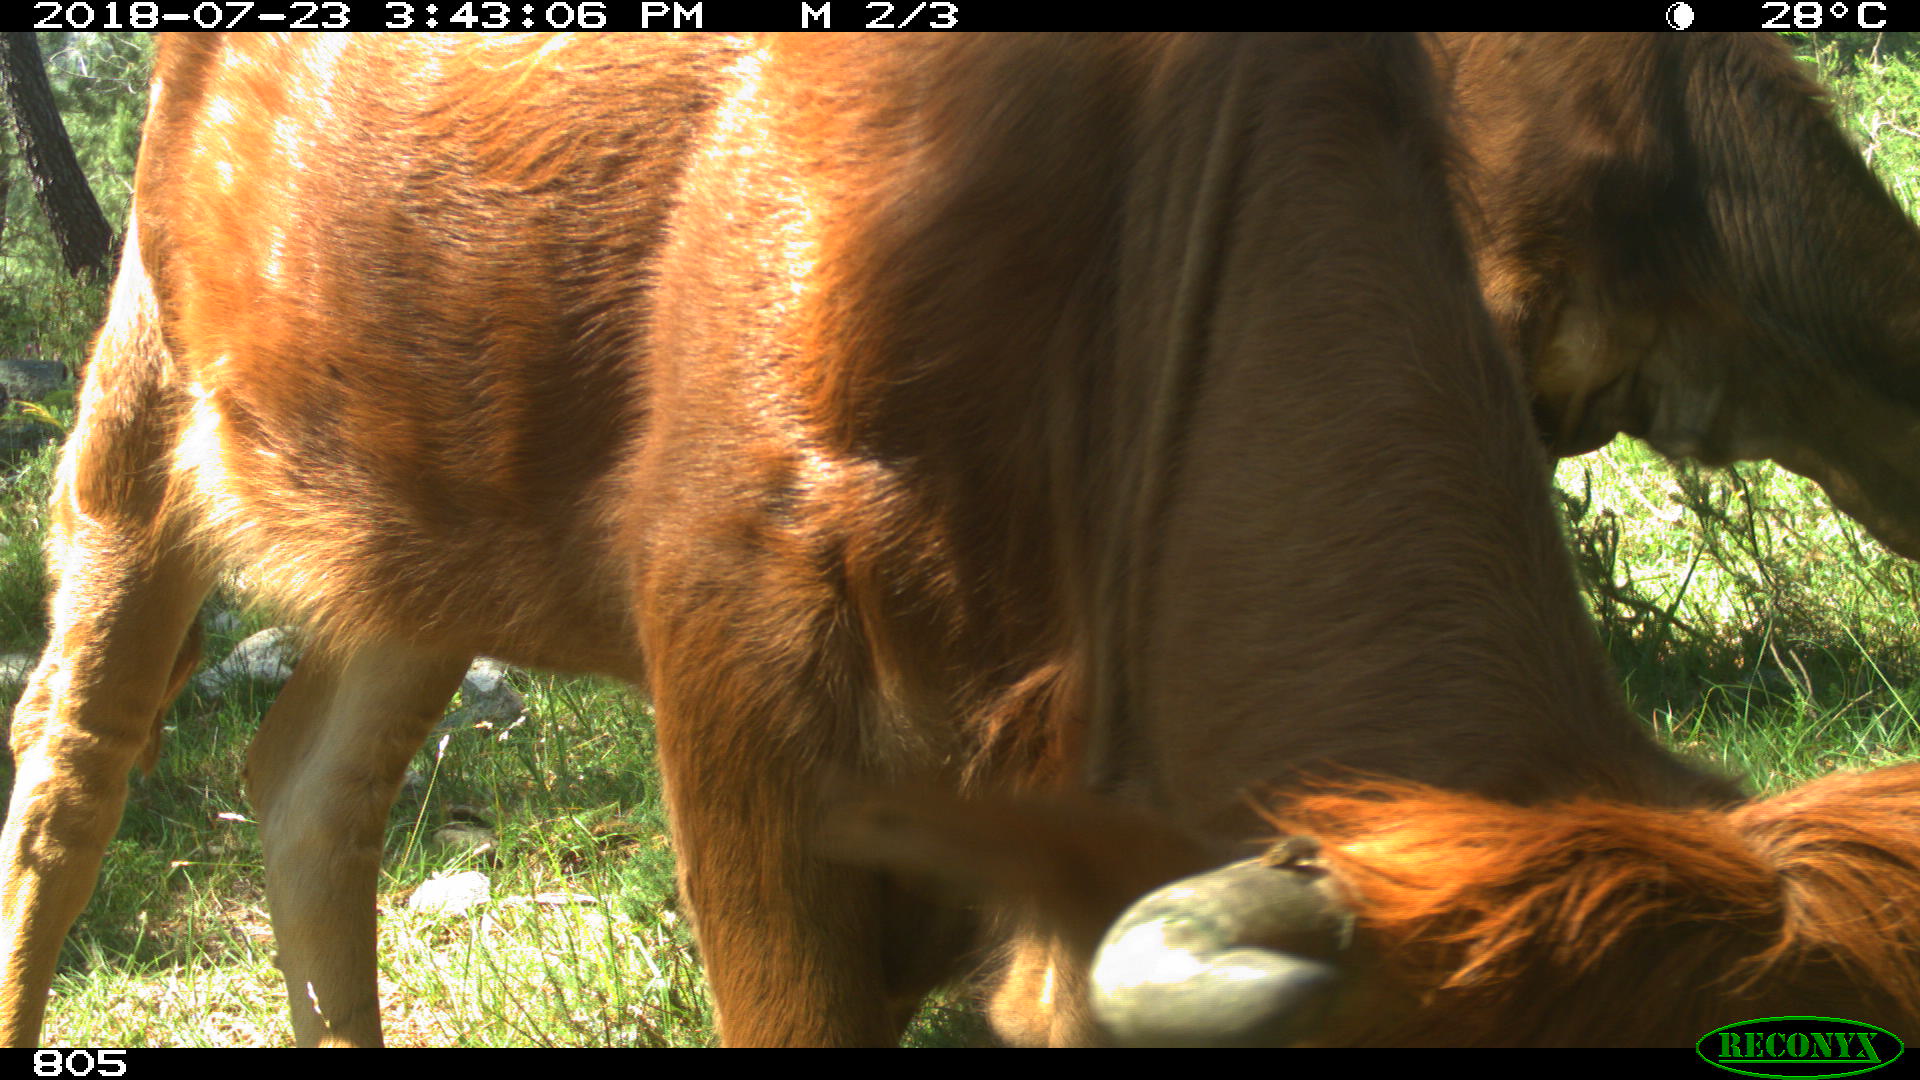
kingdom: Animalia
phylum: Chordata
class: Mammalia
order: Artiodactyla
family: Bovidae
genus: Bos
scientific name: Bos taurus
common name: Domesticated cattle
